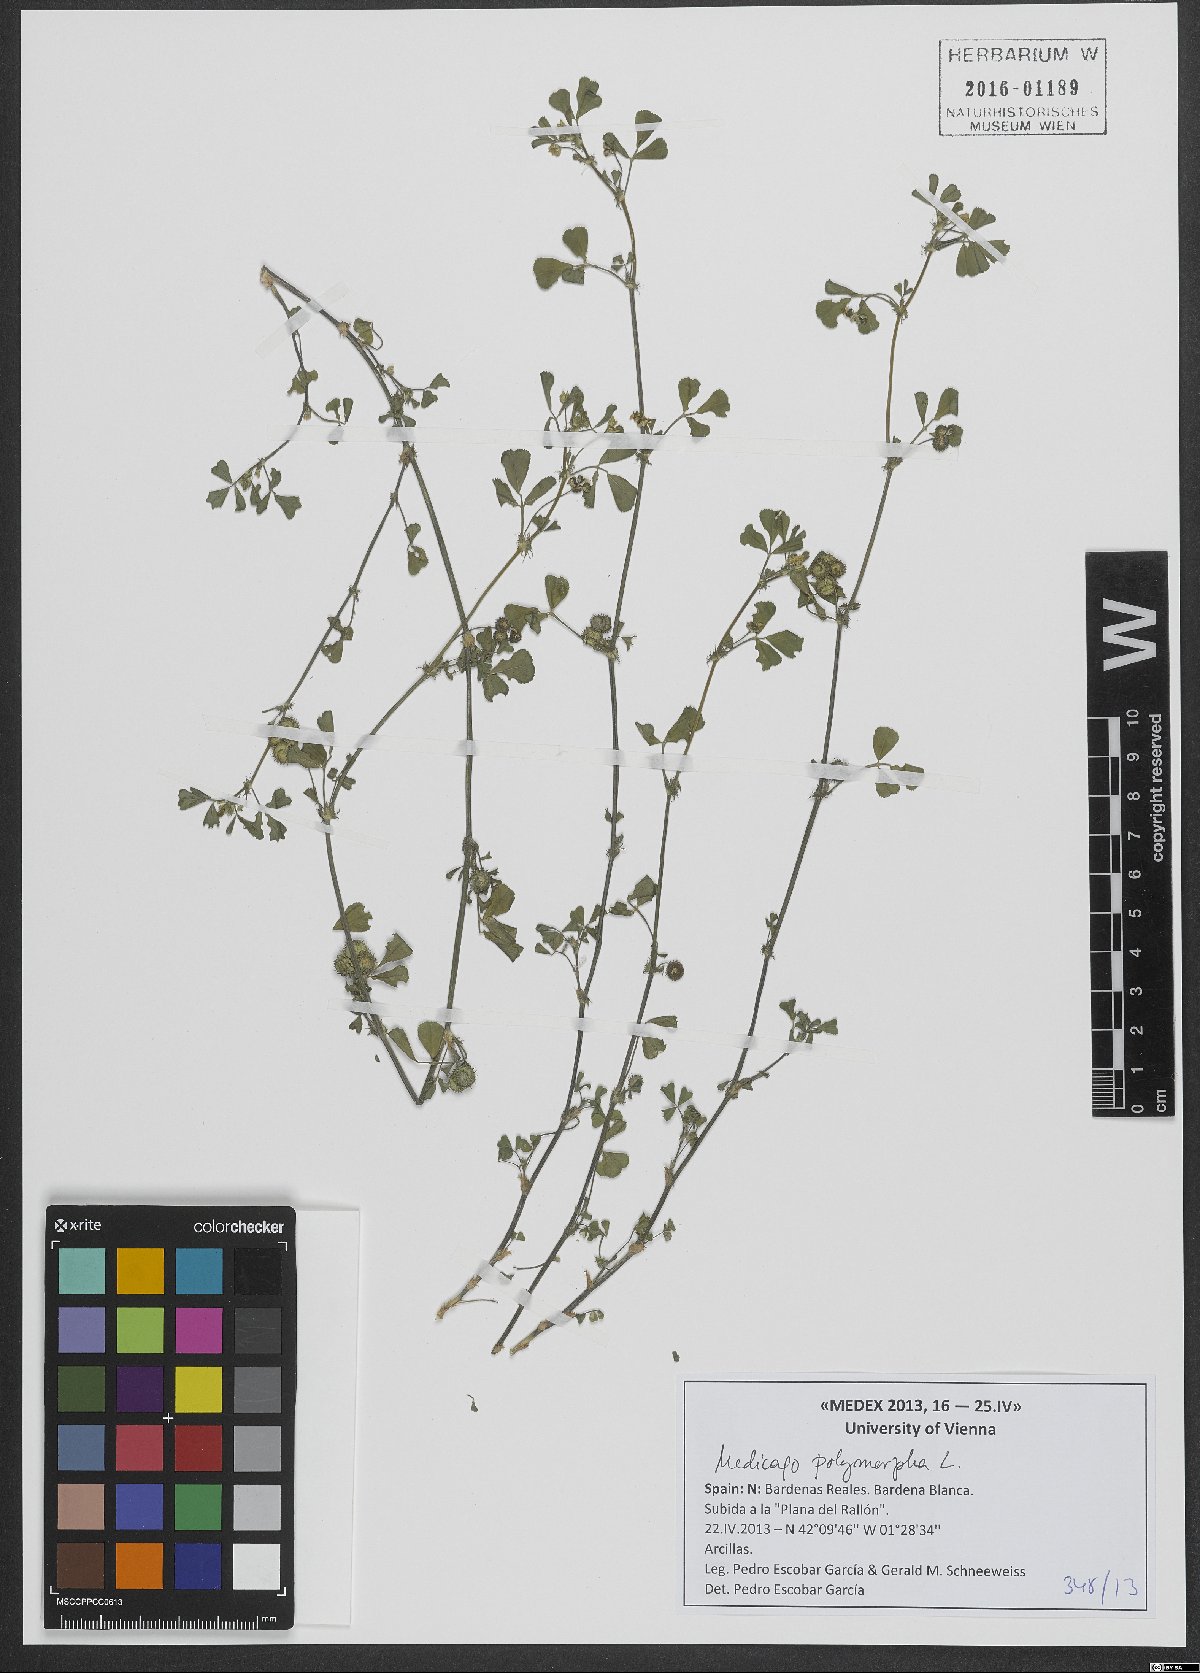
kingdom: Plantae
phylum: Tracheophyta
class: Magnoliopsida
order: Fabales
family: Fabaceae
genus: Medicago
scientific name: Medicago polymorpha
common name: Burclover
